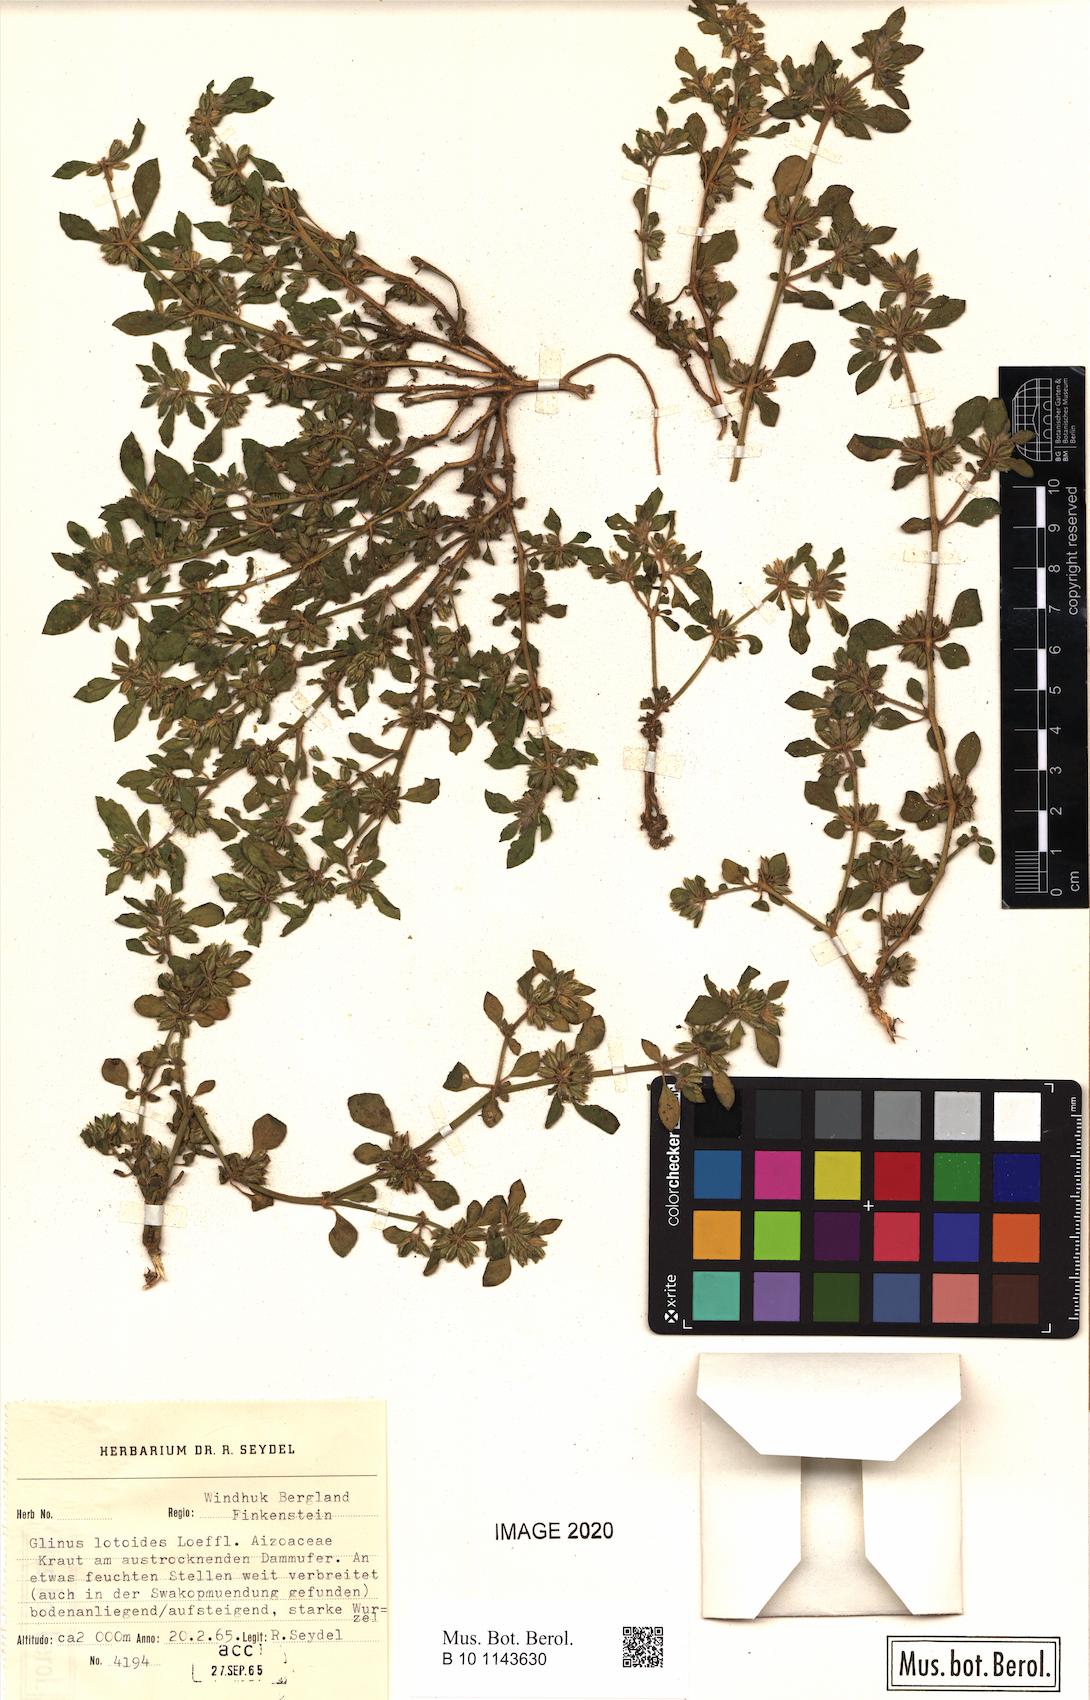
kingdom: Plantae
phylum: Tracheophyta
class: Magnoliopsida
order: Caryophyllales
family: Molluginaceae
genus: Glinus
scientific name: Glinus hirtus
